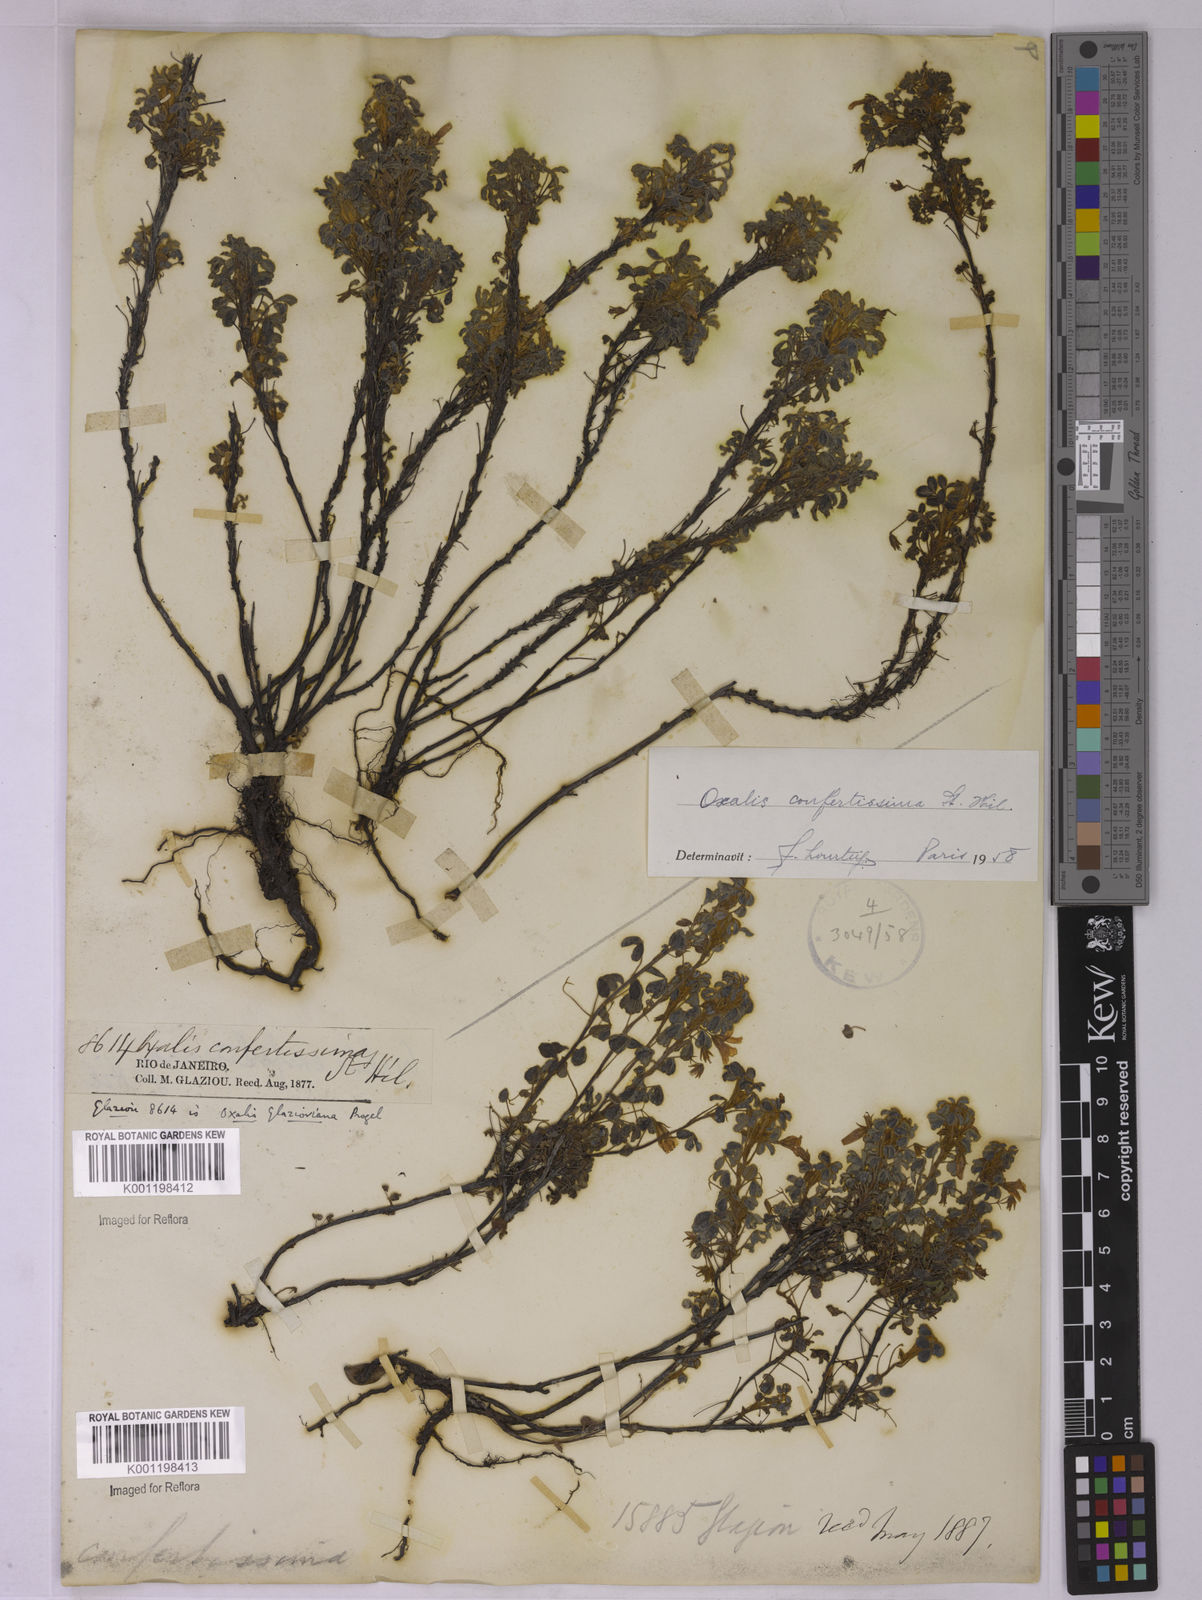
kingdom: Plantae
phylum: Tracheophyta
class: Magnoliopsida
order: Oxalidales
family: Oxalidaceae
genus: Oxalis
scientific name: Oxalis confertissima
